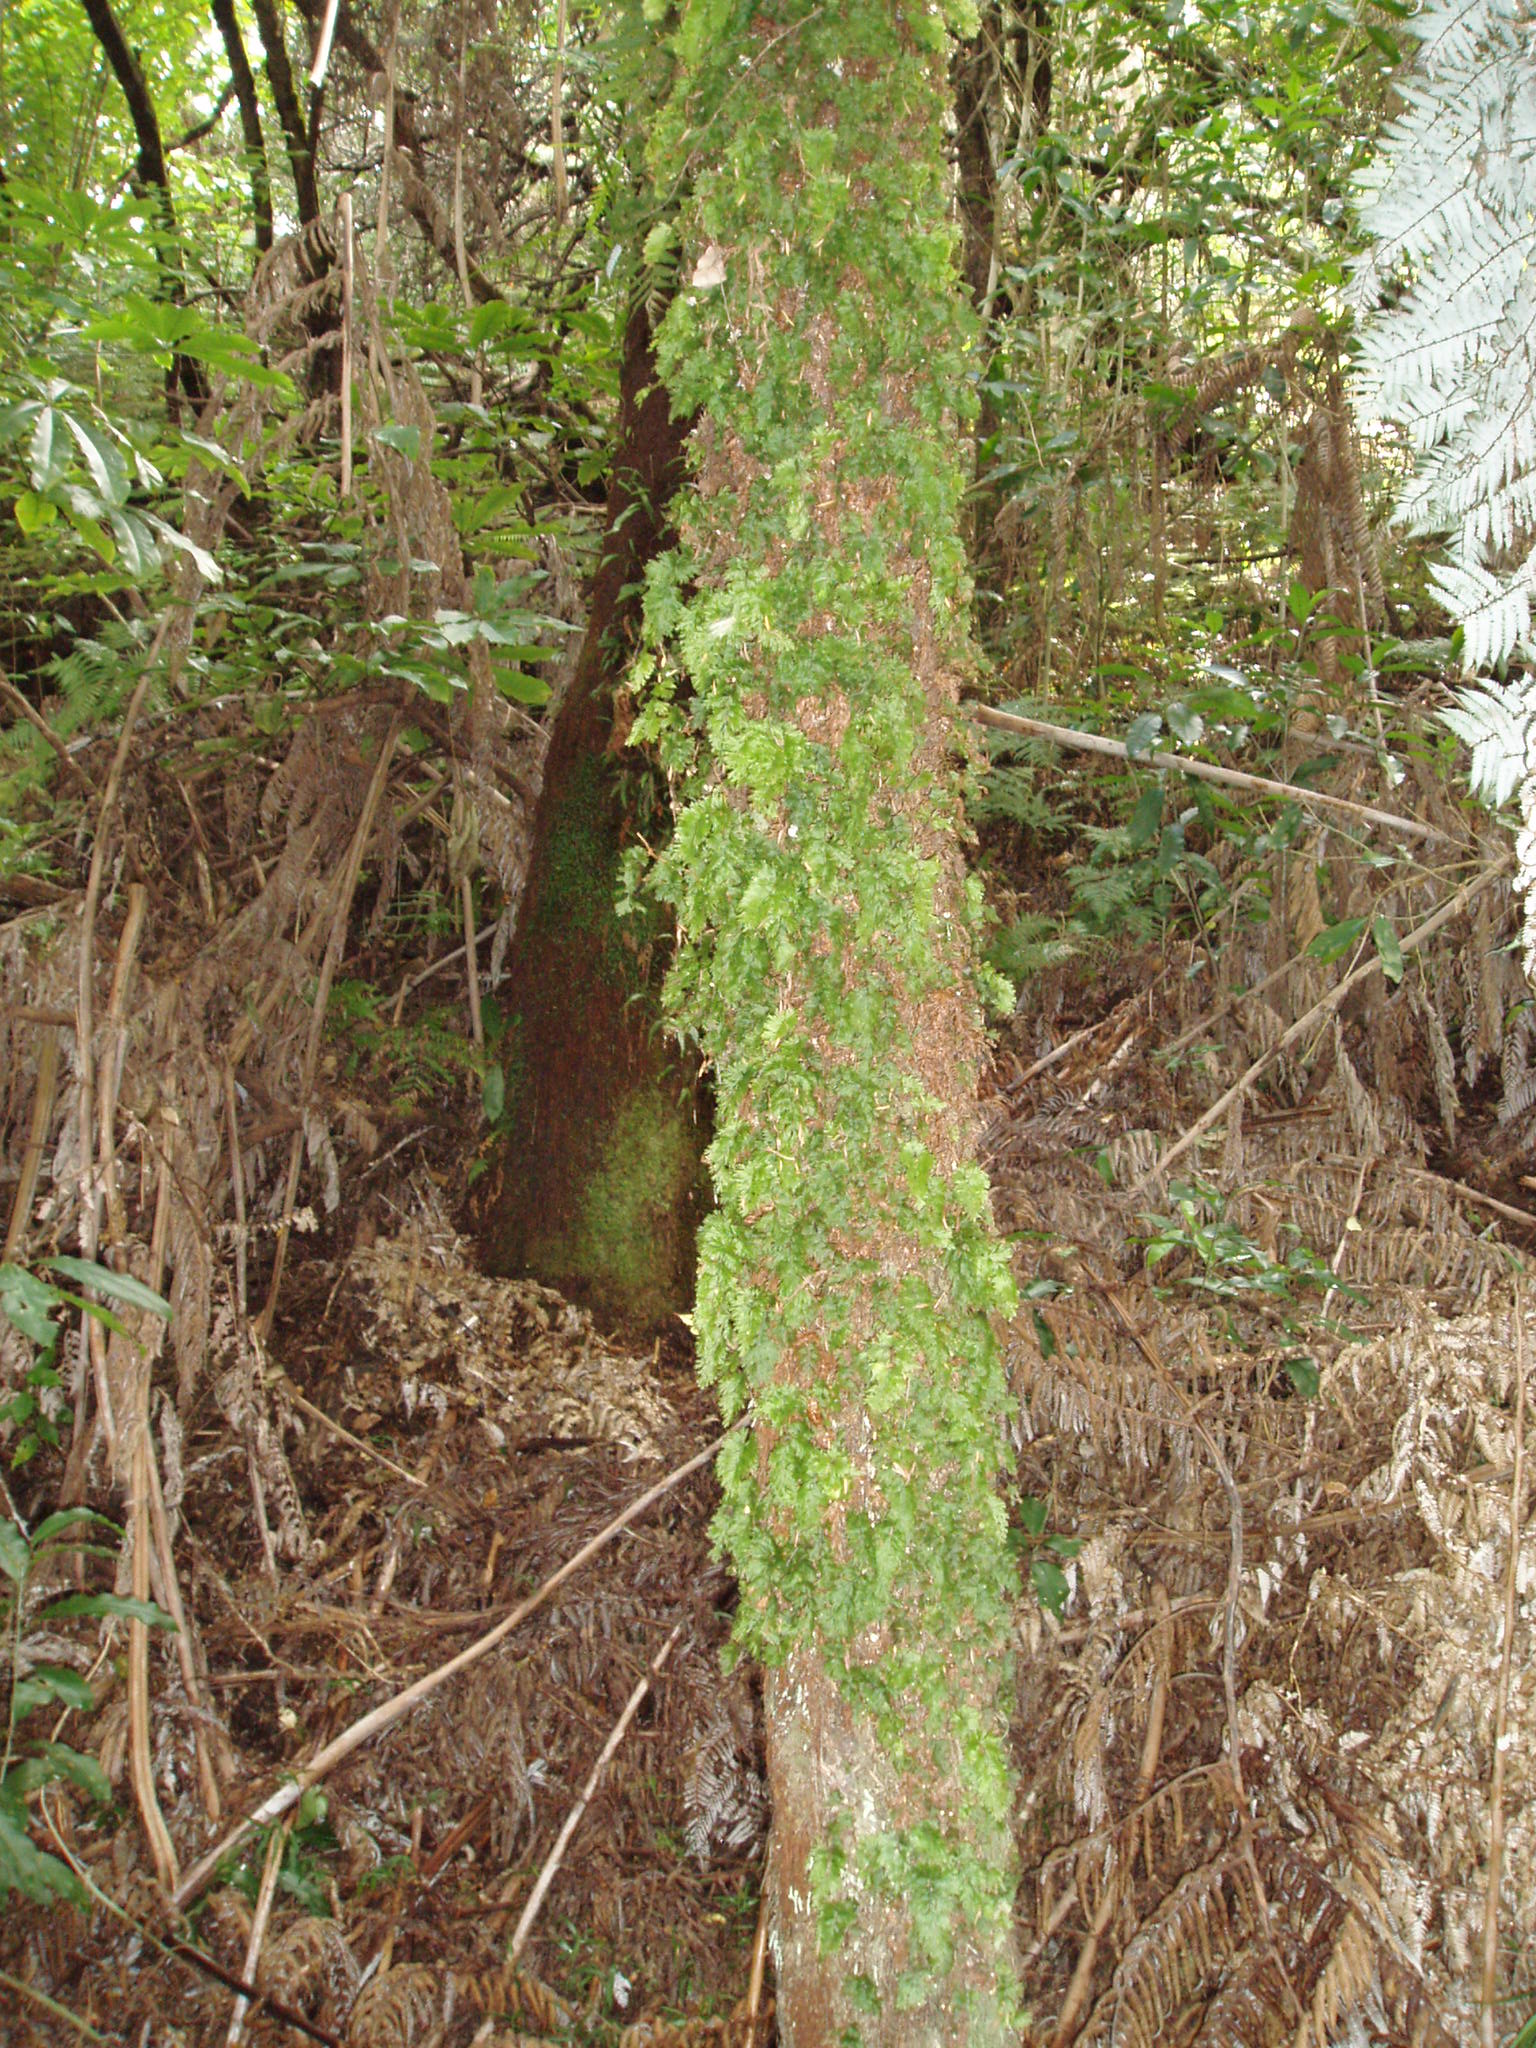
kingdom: Plantae
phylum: Tracheophyta
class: Polypodiopsida
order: Hymenophyllales
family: Hymenophyllaceae
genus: Hymenophyllum
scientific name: Hymenophyllum flabellatum
